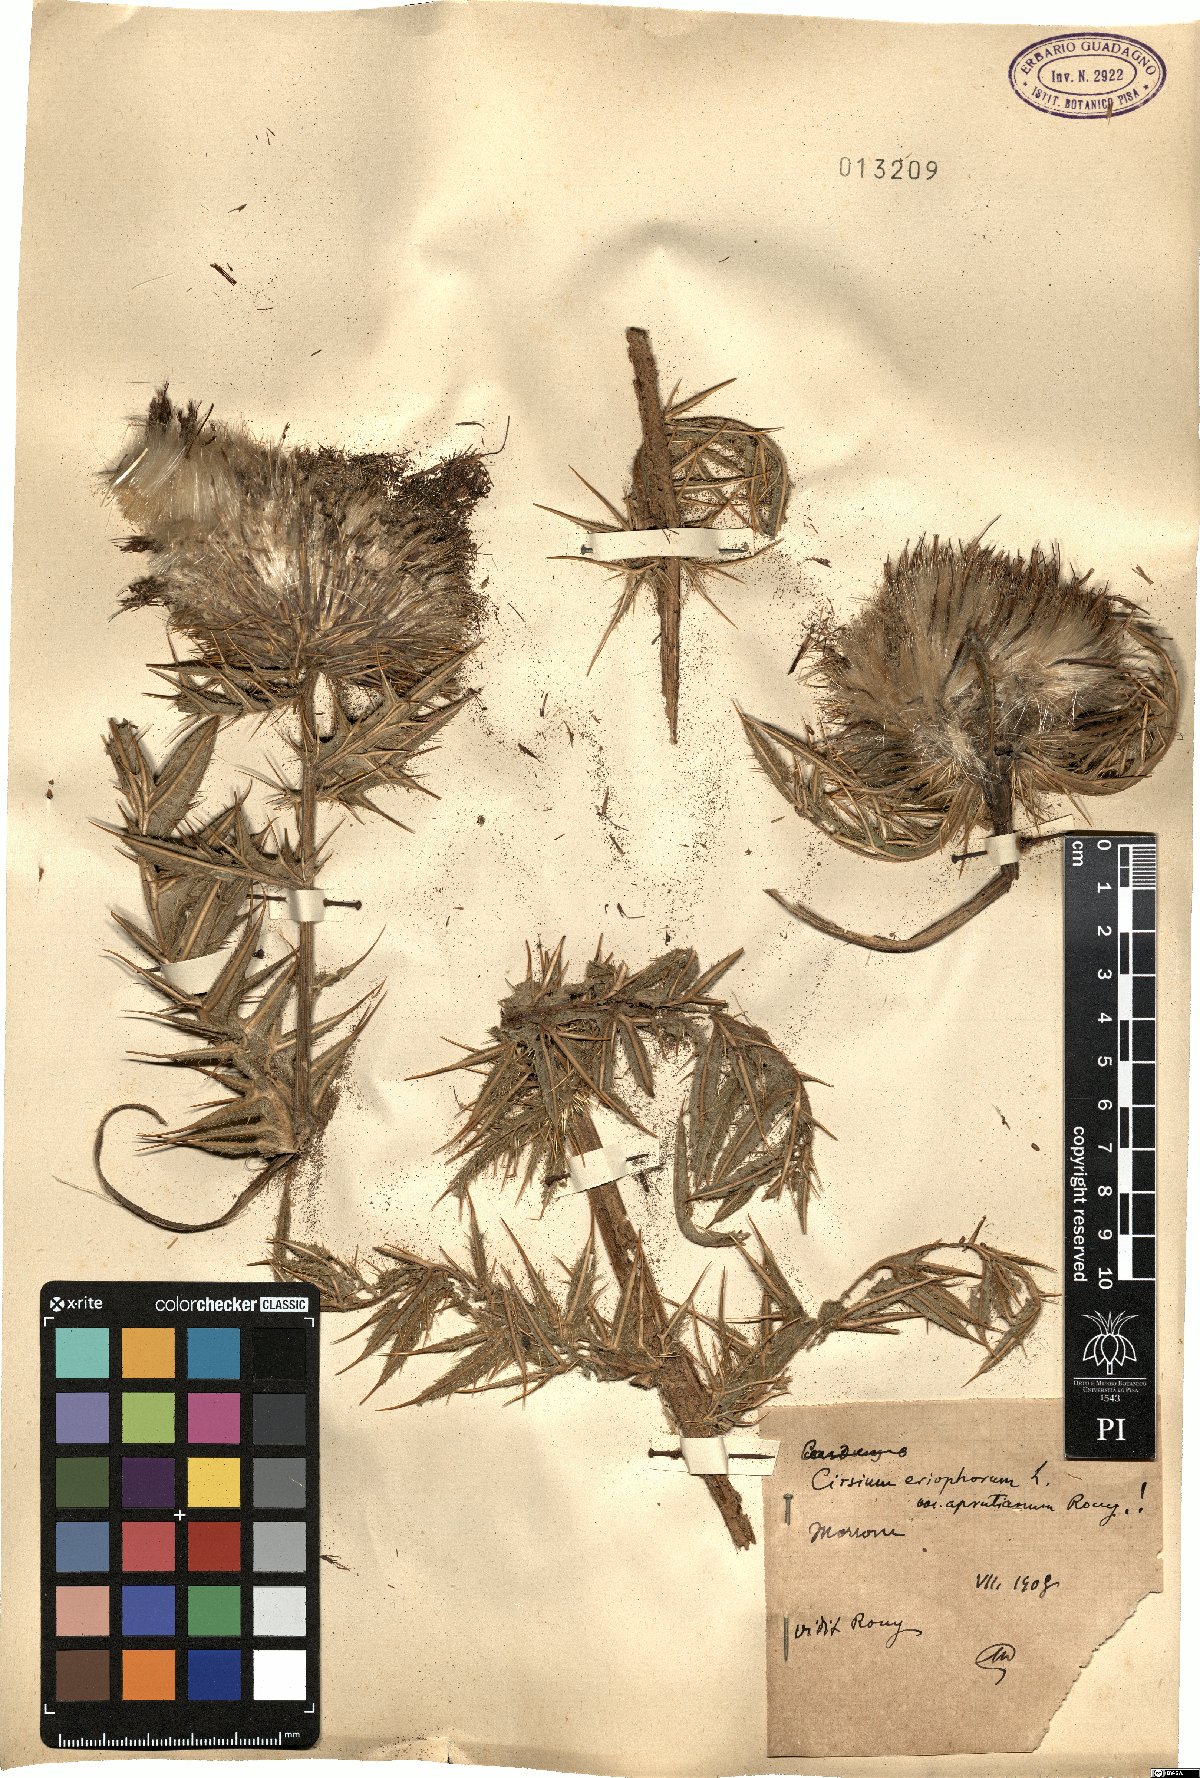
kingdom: Plantae
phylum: Tracheophyta
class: Magnoliopsida
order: Asterales
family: Asteraceae
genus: Lophiolepis
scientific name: Lophiolepis eriophora
